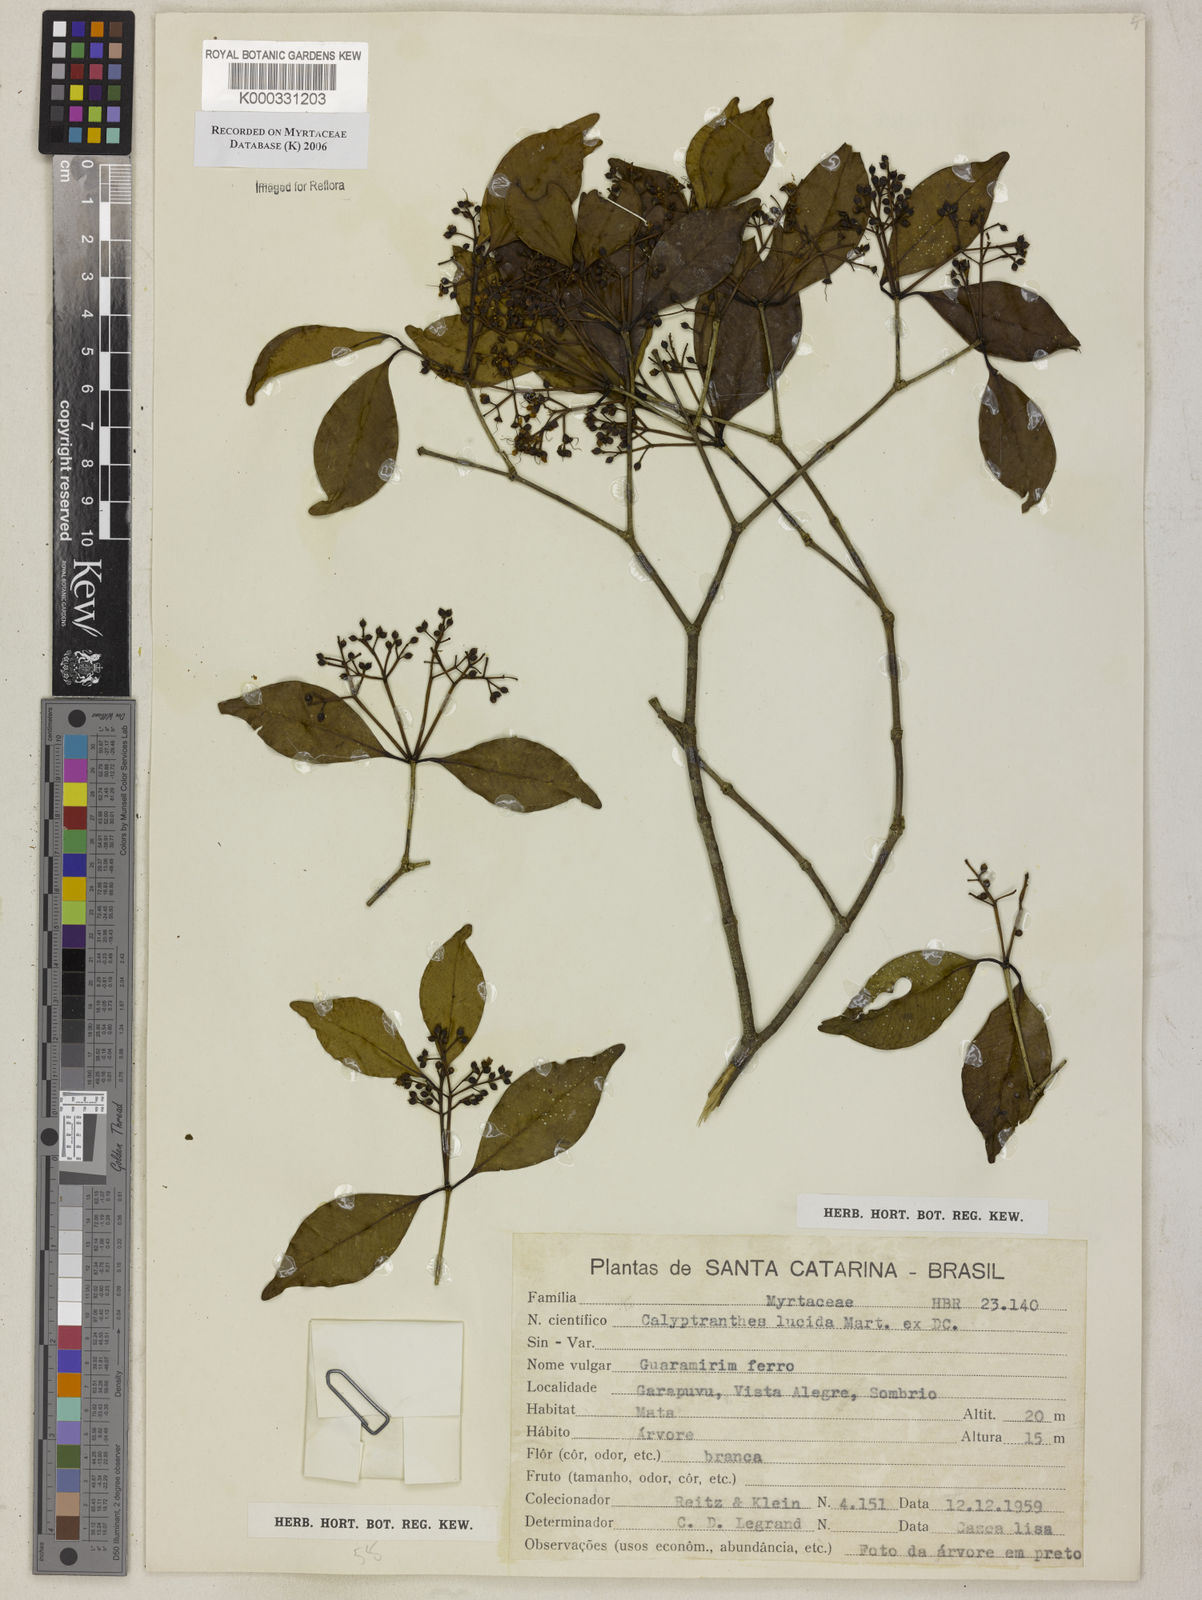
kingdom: Plantae
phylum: Tracheophyta
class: Magnoliopsida
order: Myrtales
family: Myrtaceae
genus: Myrcia
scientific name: Myrcia neolucida
